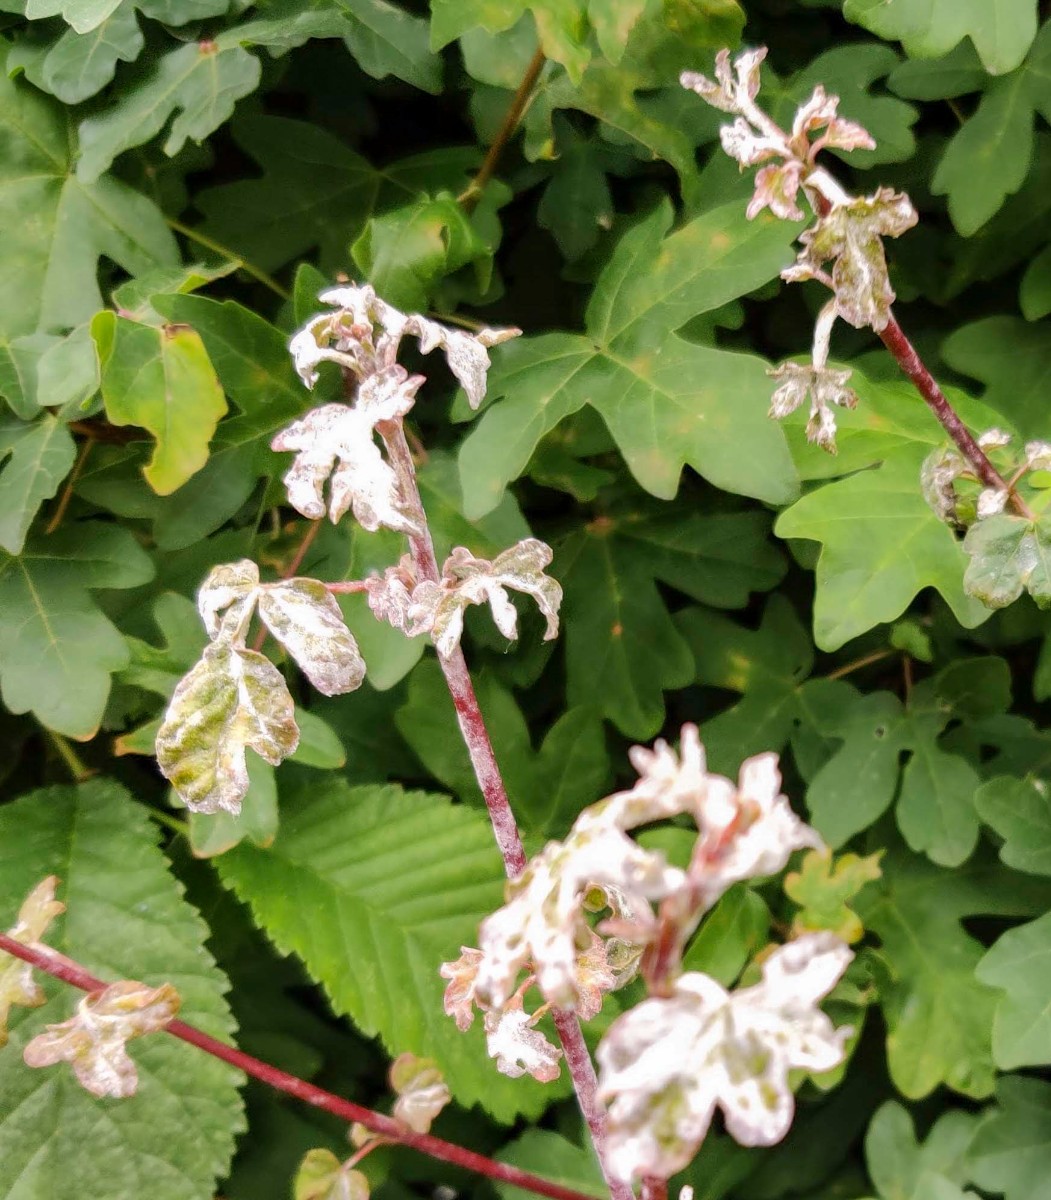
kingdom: Fungi
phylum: Ascomycota
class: Leotiomycetes
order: Helotiales
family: Erysiphaceae
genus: Sawadaea
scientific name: Sawadaea bicornis
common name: Maple mildew
